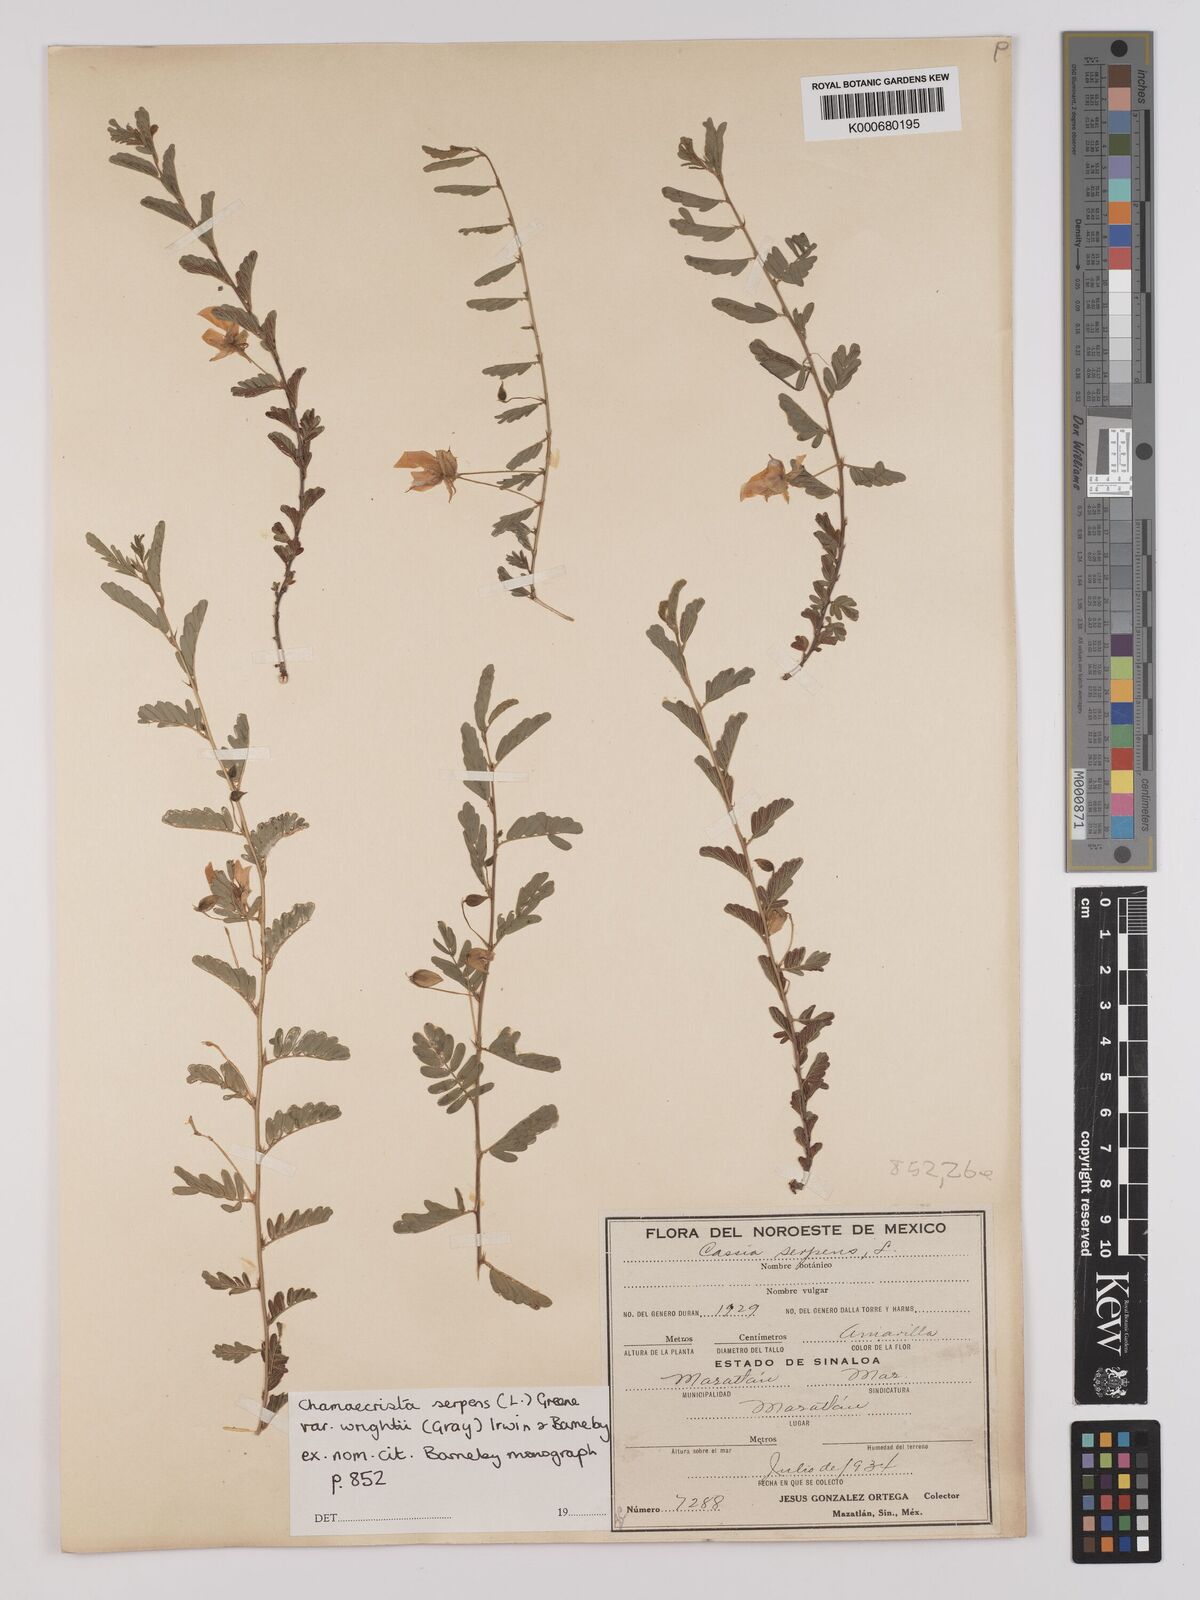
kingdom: Plantae
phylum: Tracheophyta
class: Magnoliopsida
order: Fabales
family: Fabaceae
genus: Chamaecrista
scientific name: Chamaecrista serpens
